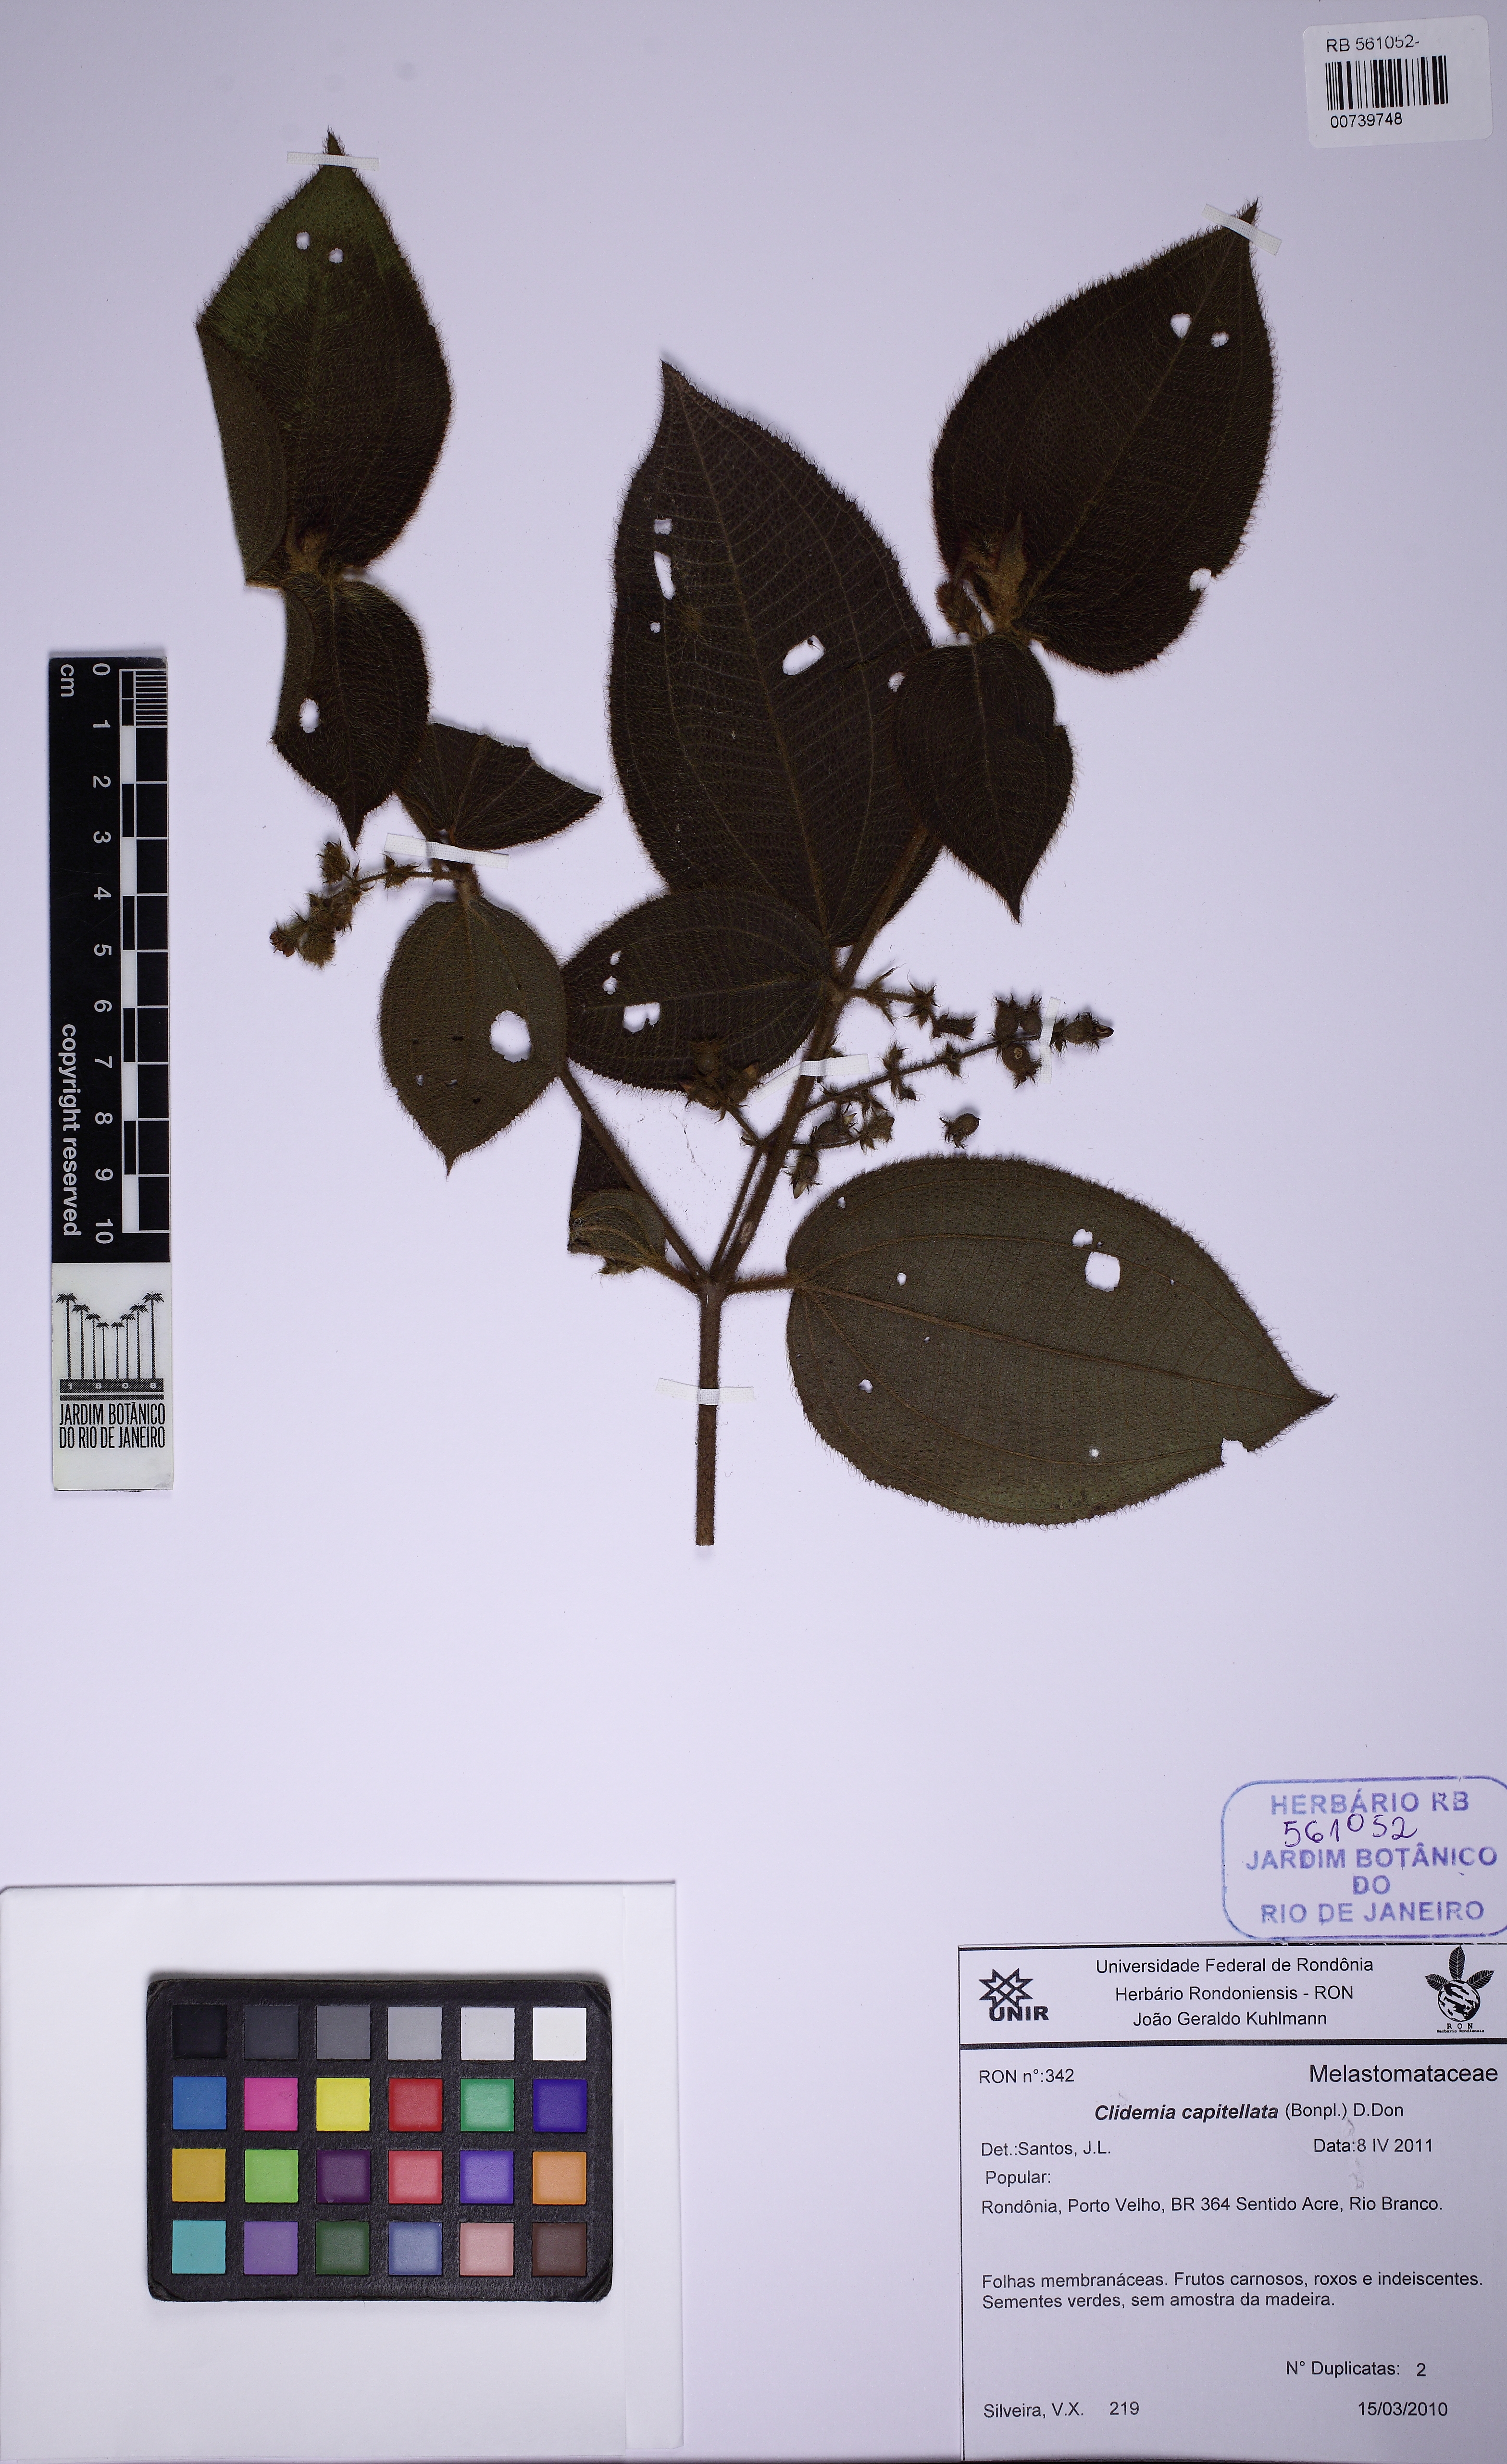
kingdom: Plantae
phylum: Tracheophyta
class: Magnoliopsida
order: Myrtales
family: Melastomataceae
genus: Miconia
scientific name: Miconia dependens
